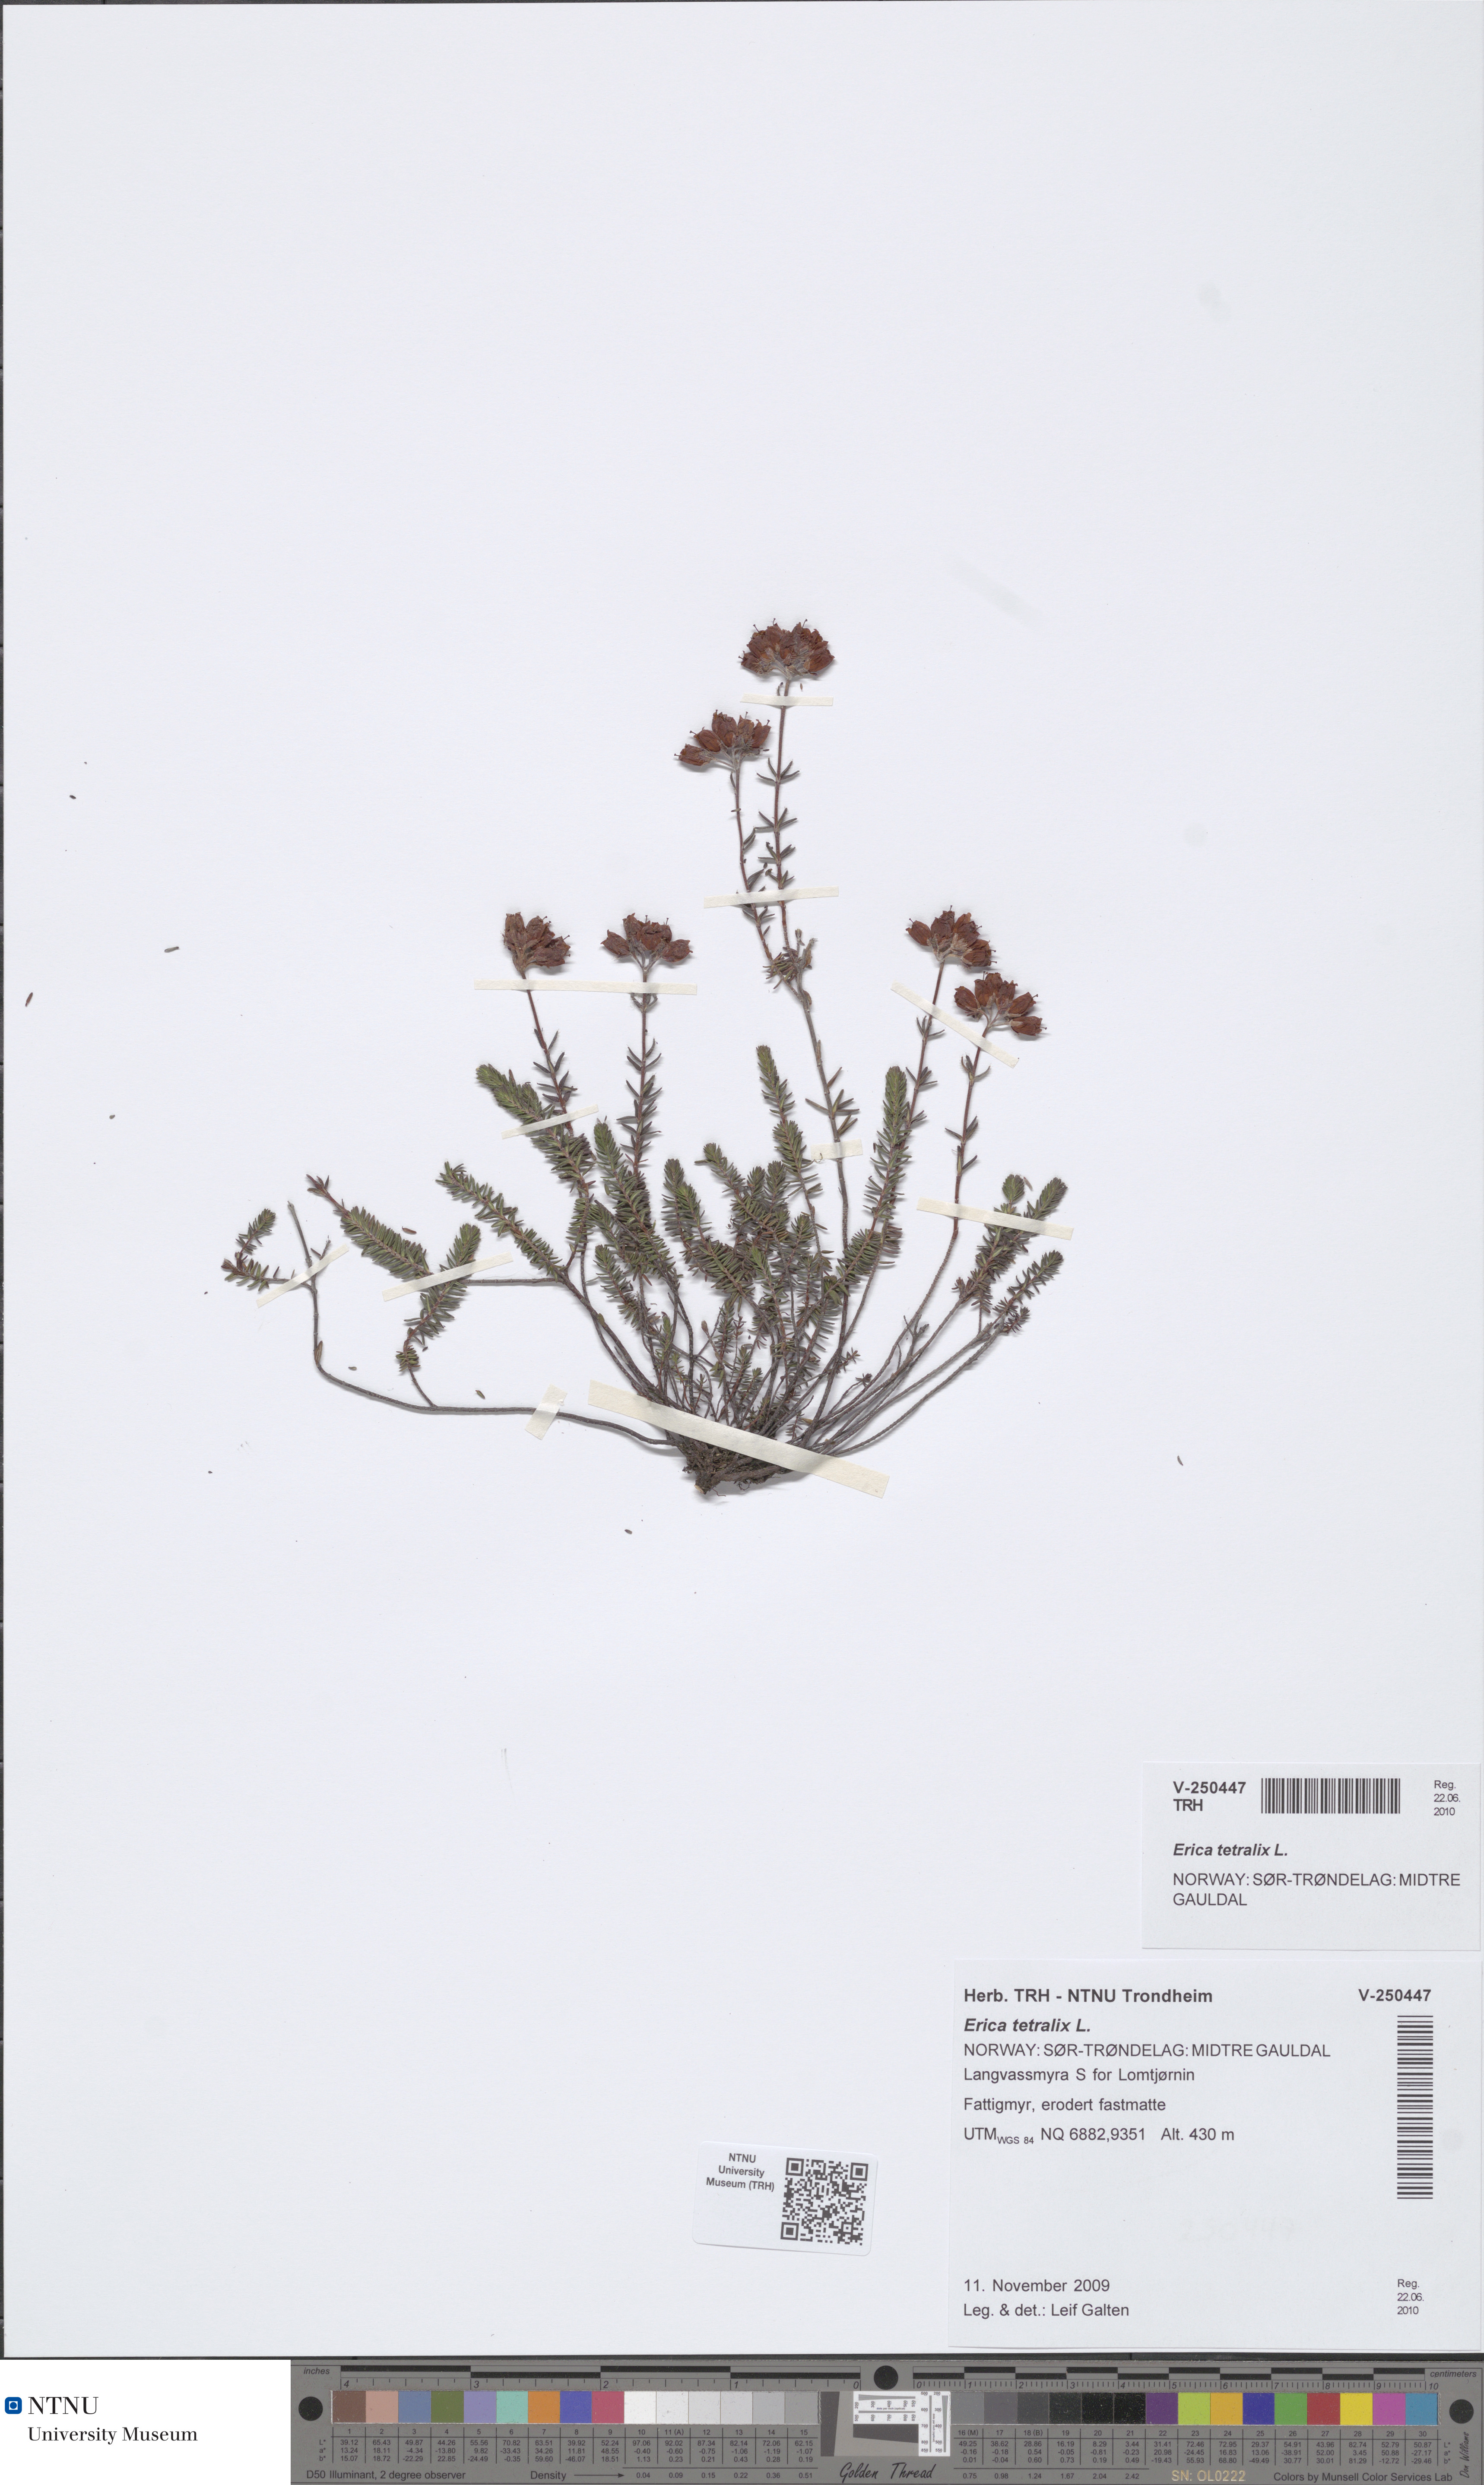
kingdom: Plantae
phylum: Tracheophyta
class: Magnoliopsida
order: Ericales
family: Ericaceae
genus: Erica
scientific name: Erica tetralix
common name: Cross-leaved heath
